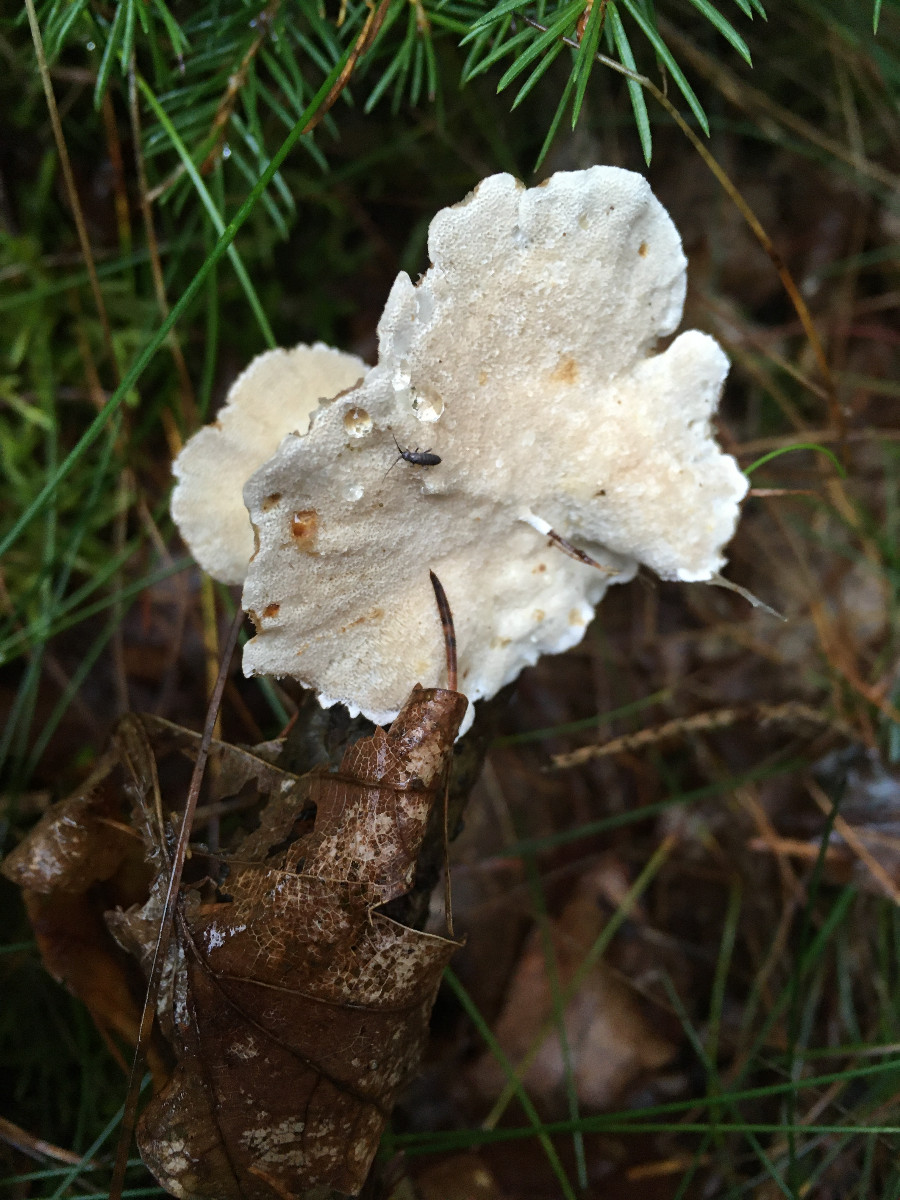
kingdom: Fungi
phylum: Basidiomycota
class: Agaricomycetes
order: Polyporales
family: Polyporaceae
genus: Trametes
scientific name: Trametes
